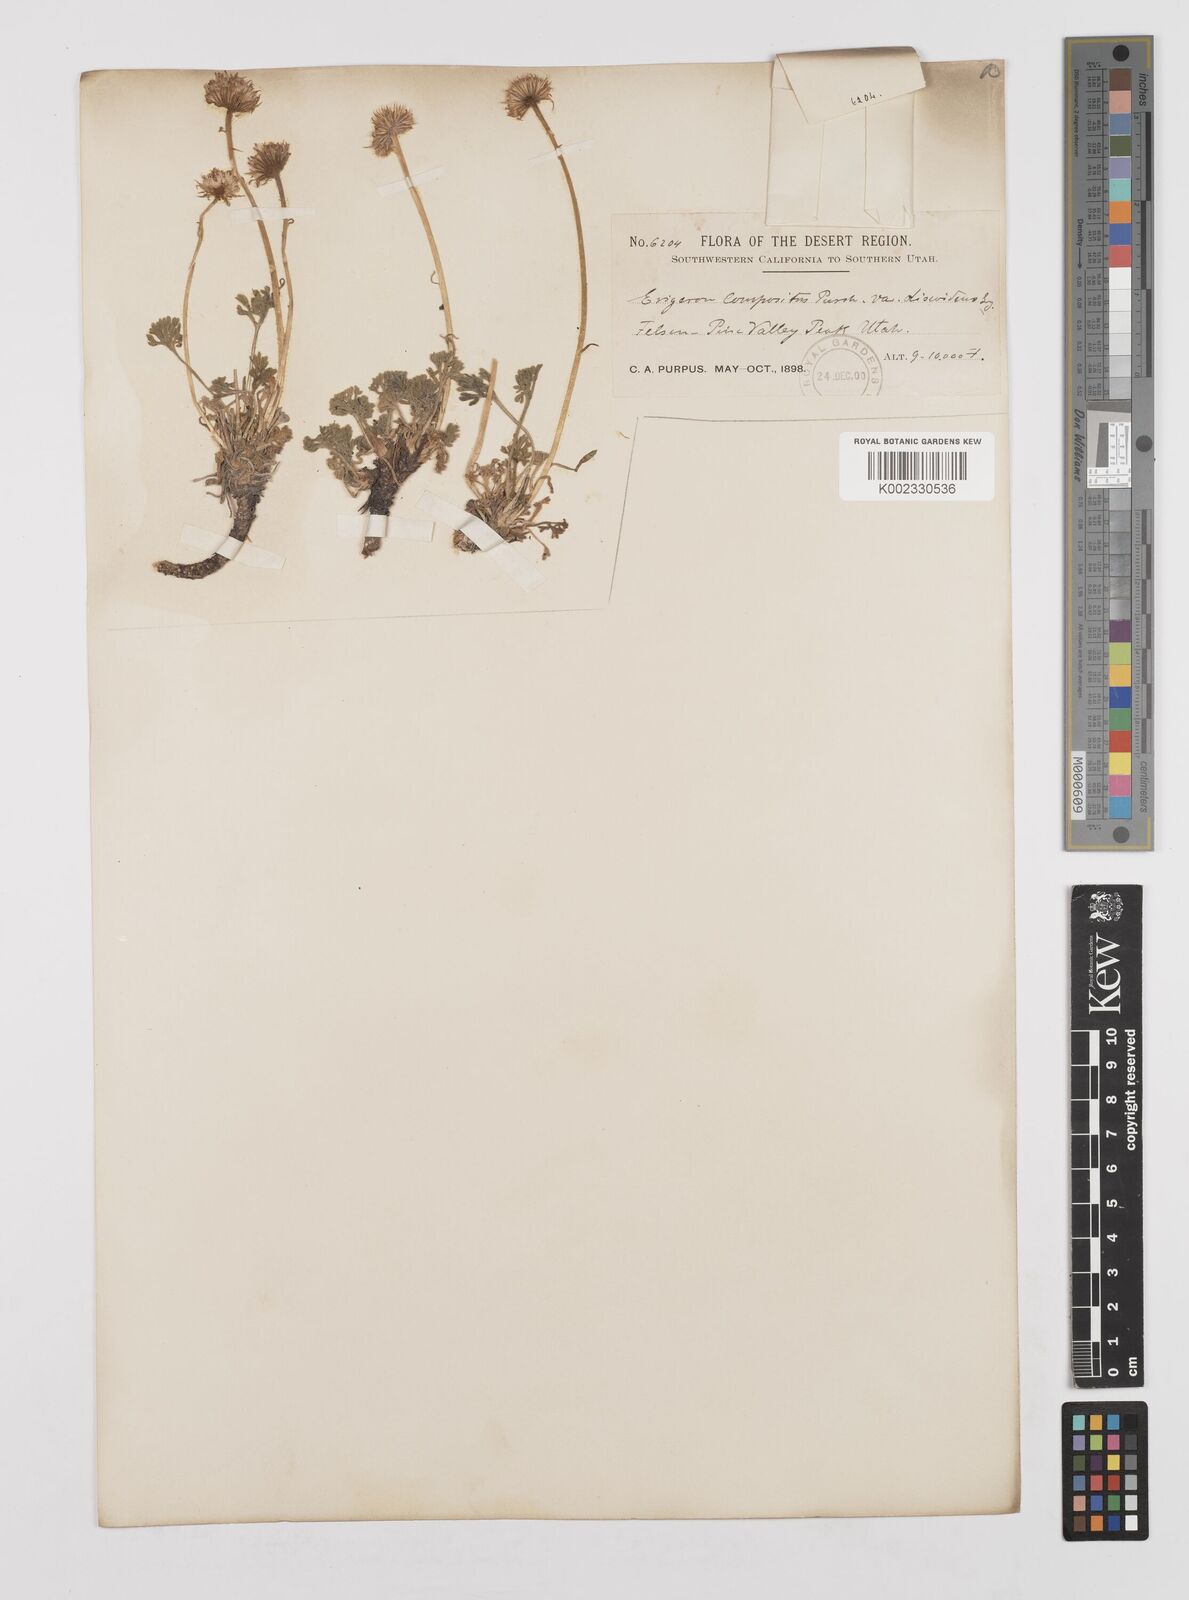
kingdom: Plantae
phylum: Tracheophyta
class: Magnoliopsida
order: Asterales
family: Asteraceae
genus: Erigeron
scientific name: Erigeron compositus
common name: Dwarf mountain fleabane
